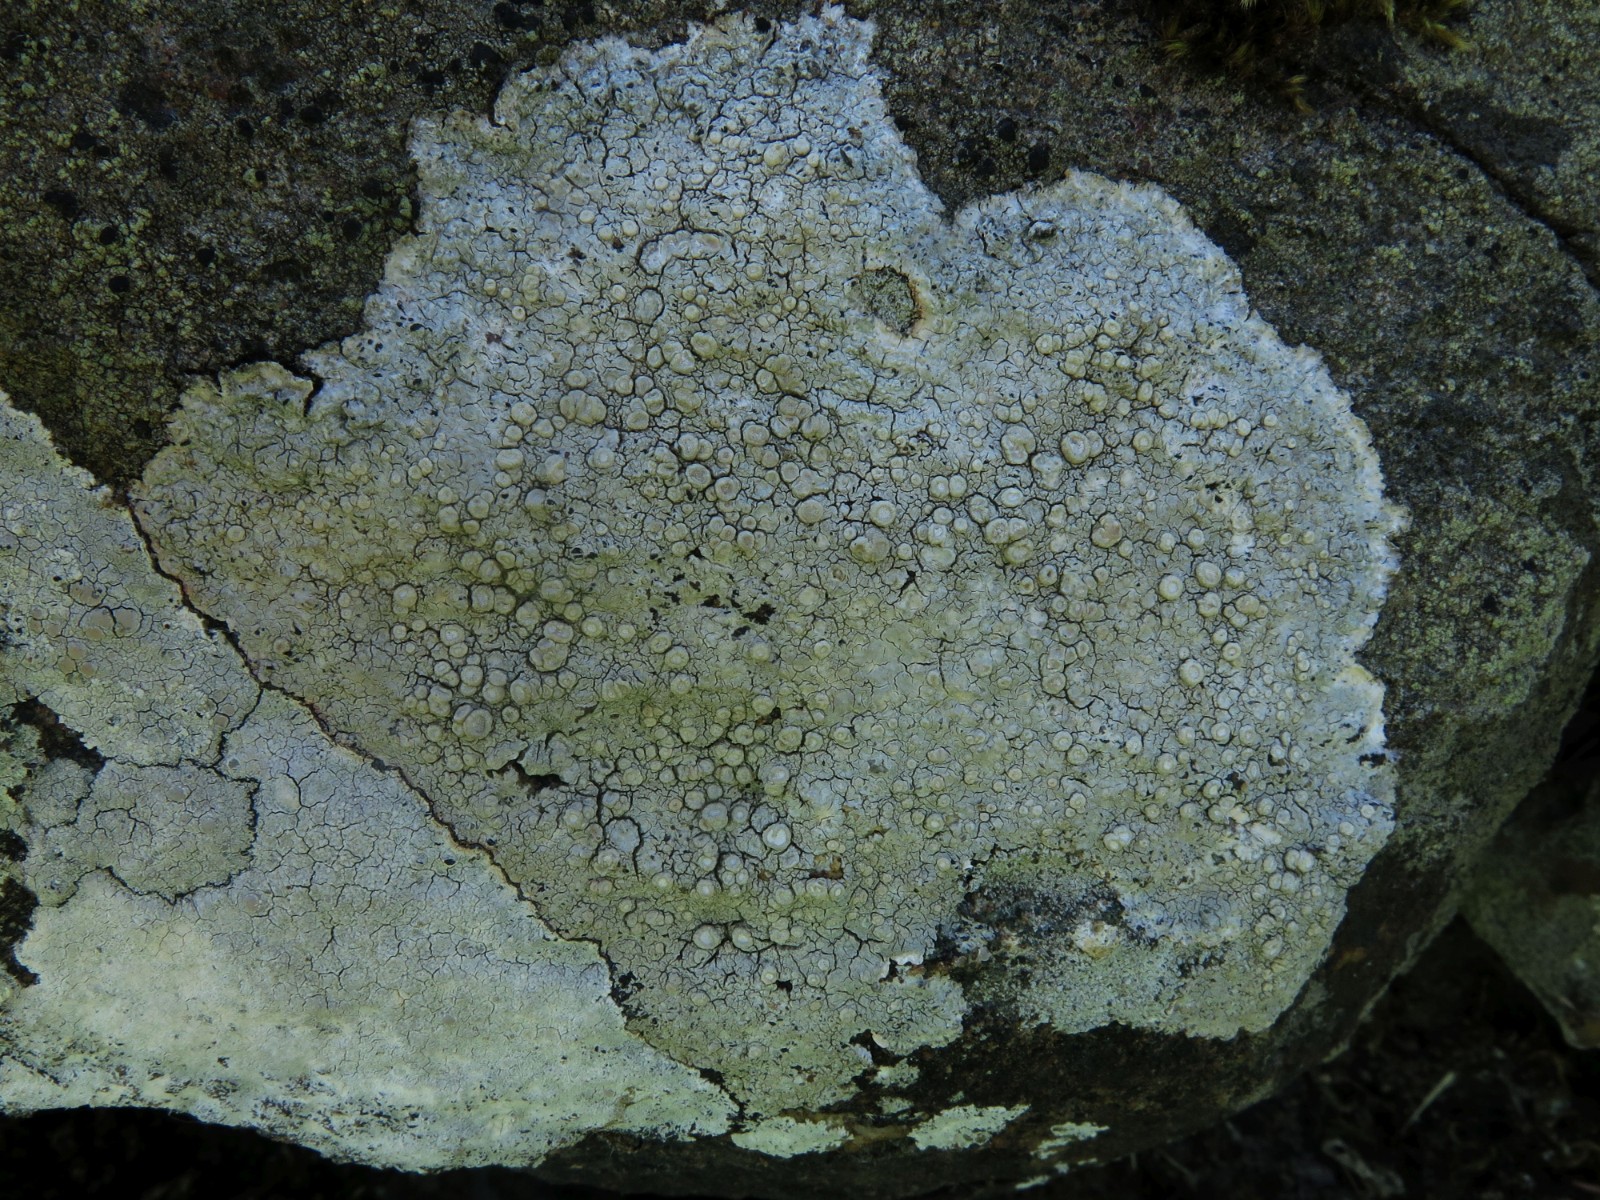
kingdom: Fungi
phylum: Ascomycota
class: Lecanoromycetes
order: Pertusariales
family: Ochrolechiaceae
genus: Ochrolechia
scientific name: Ochrolechia parella
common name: almindelig blegskivelav
